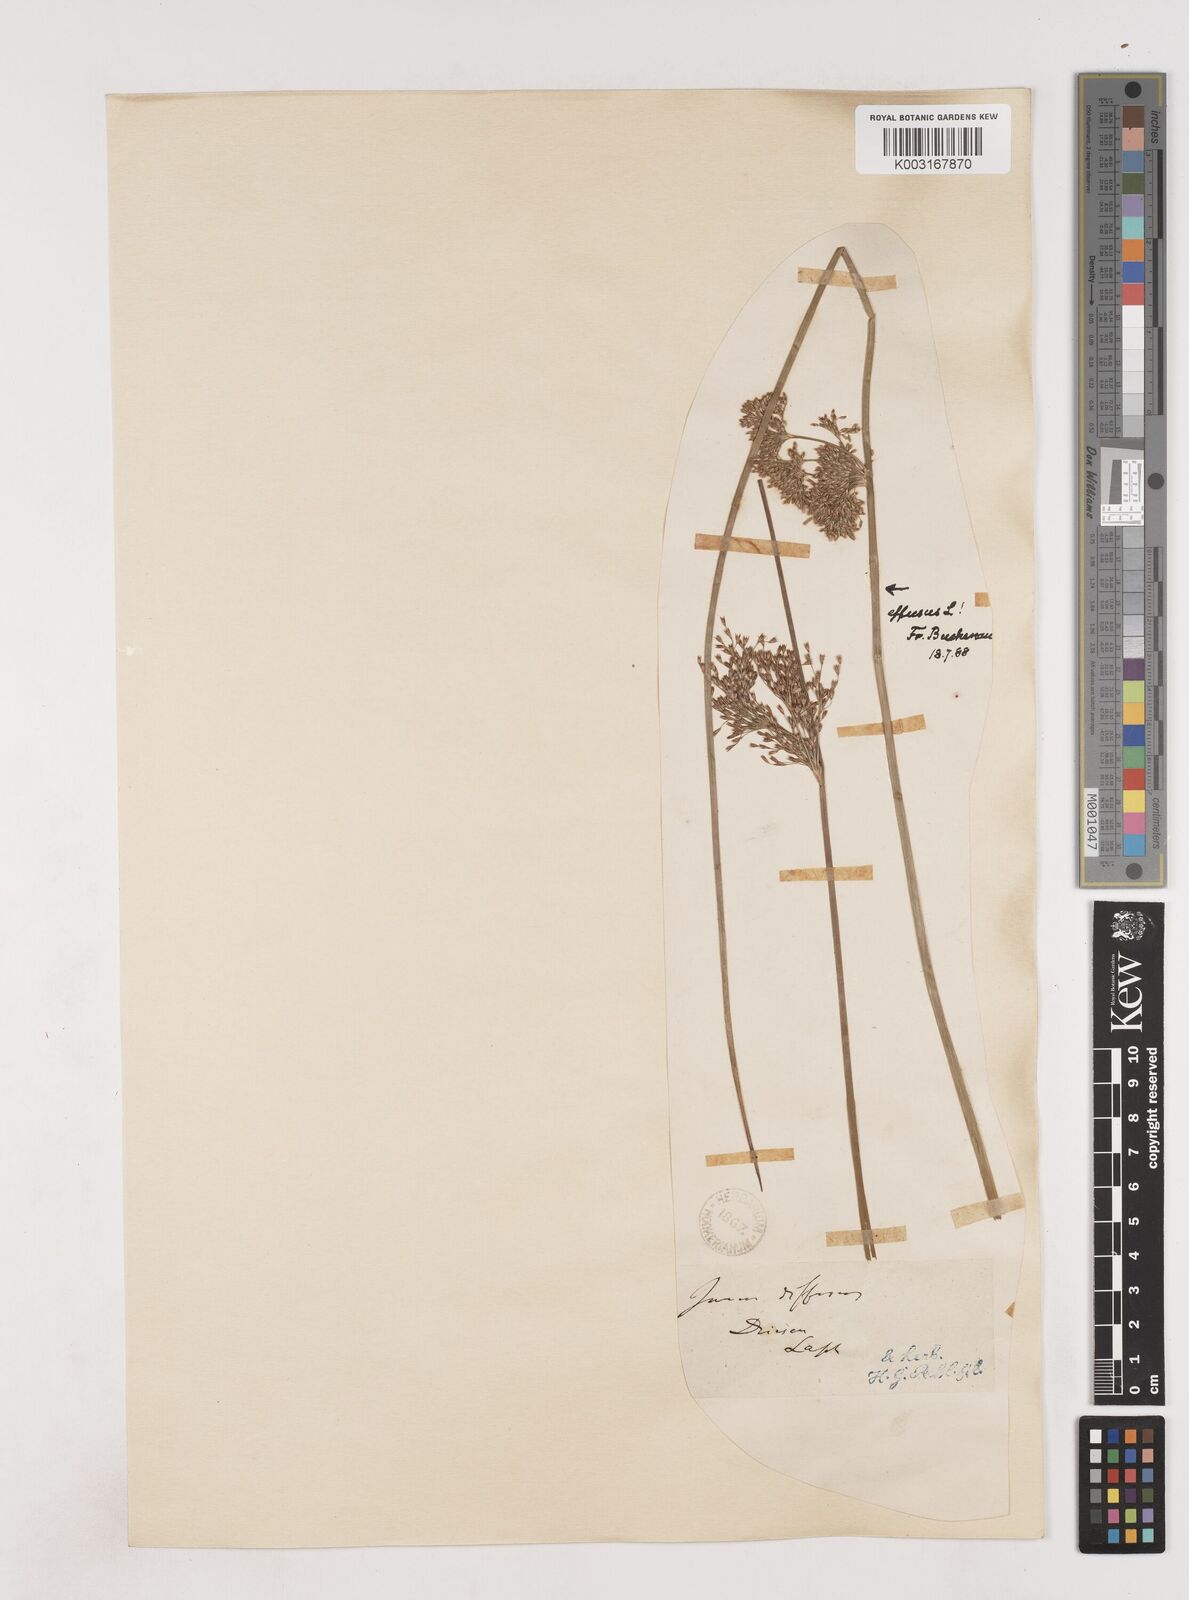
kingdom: Plantae
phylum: Tracheophyta
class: Liliopsida
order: Poales
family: Juncaceae
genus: Juncus
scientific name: Juncus effusus
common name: Soft rush
